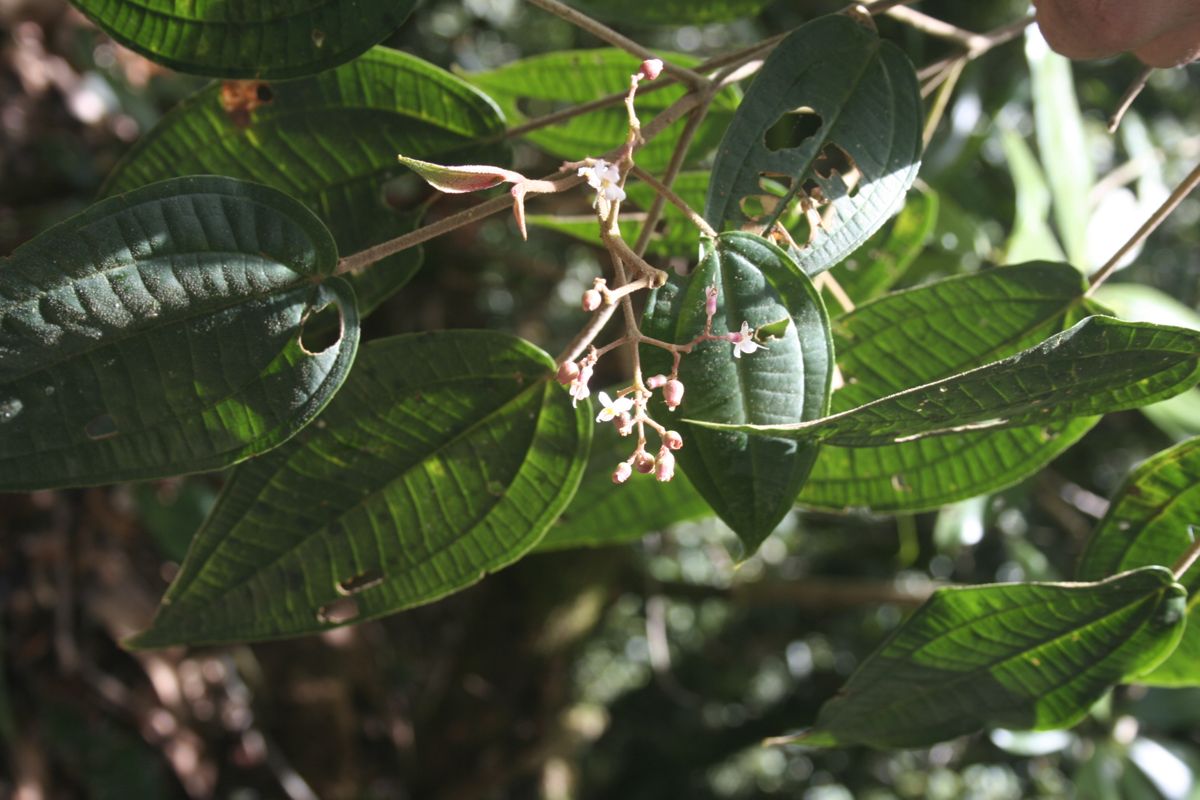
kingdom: Plantae
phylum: Tracheophyta
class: Magnoliopsida
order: Myrtales
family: Melastomataceae
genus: Miconia
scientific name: Miconia mexicana
